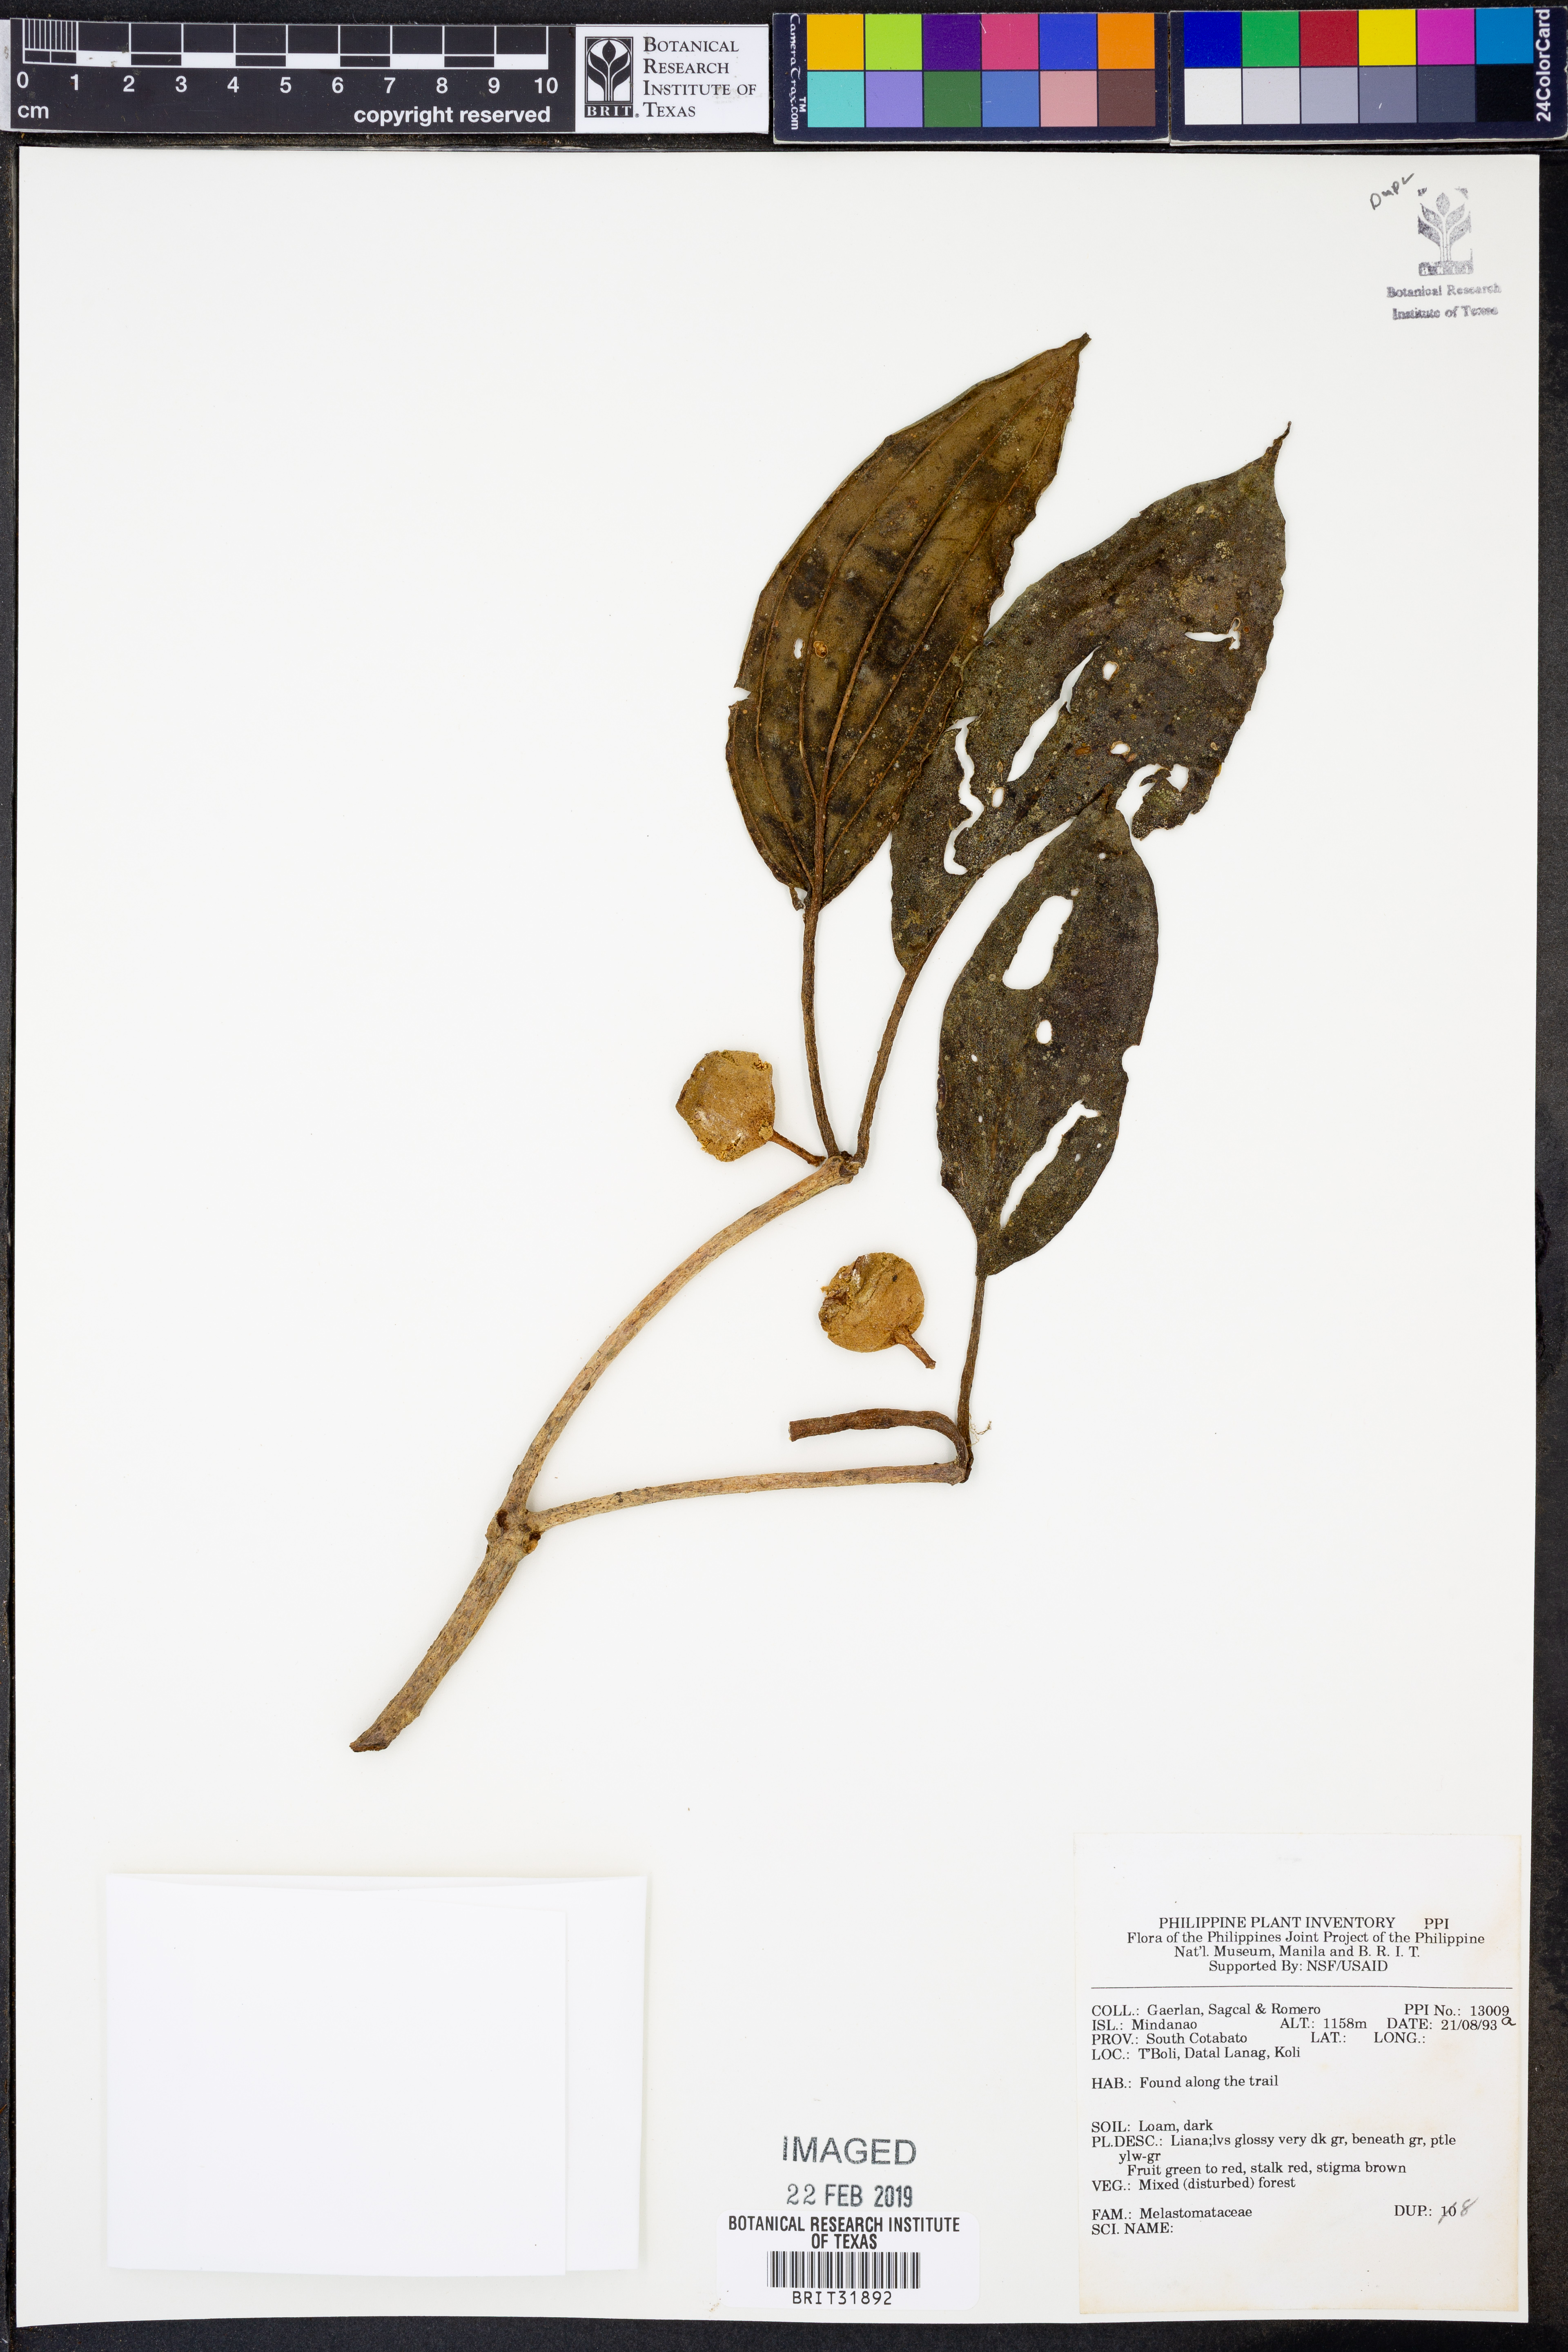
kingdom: Plantae
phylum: Tracheophyta
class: Magnoliopsida
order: Myrtales
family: Melastomataceae
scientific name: Melastomataceae
